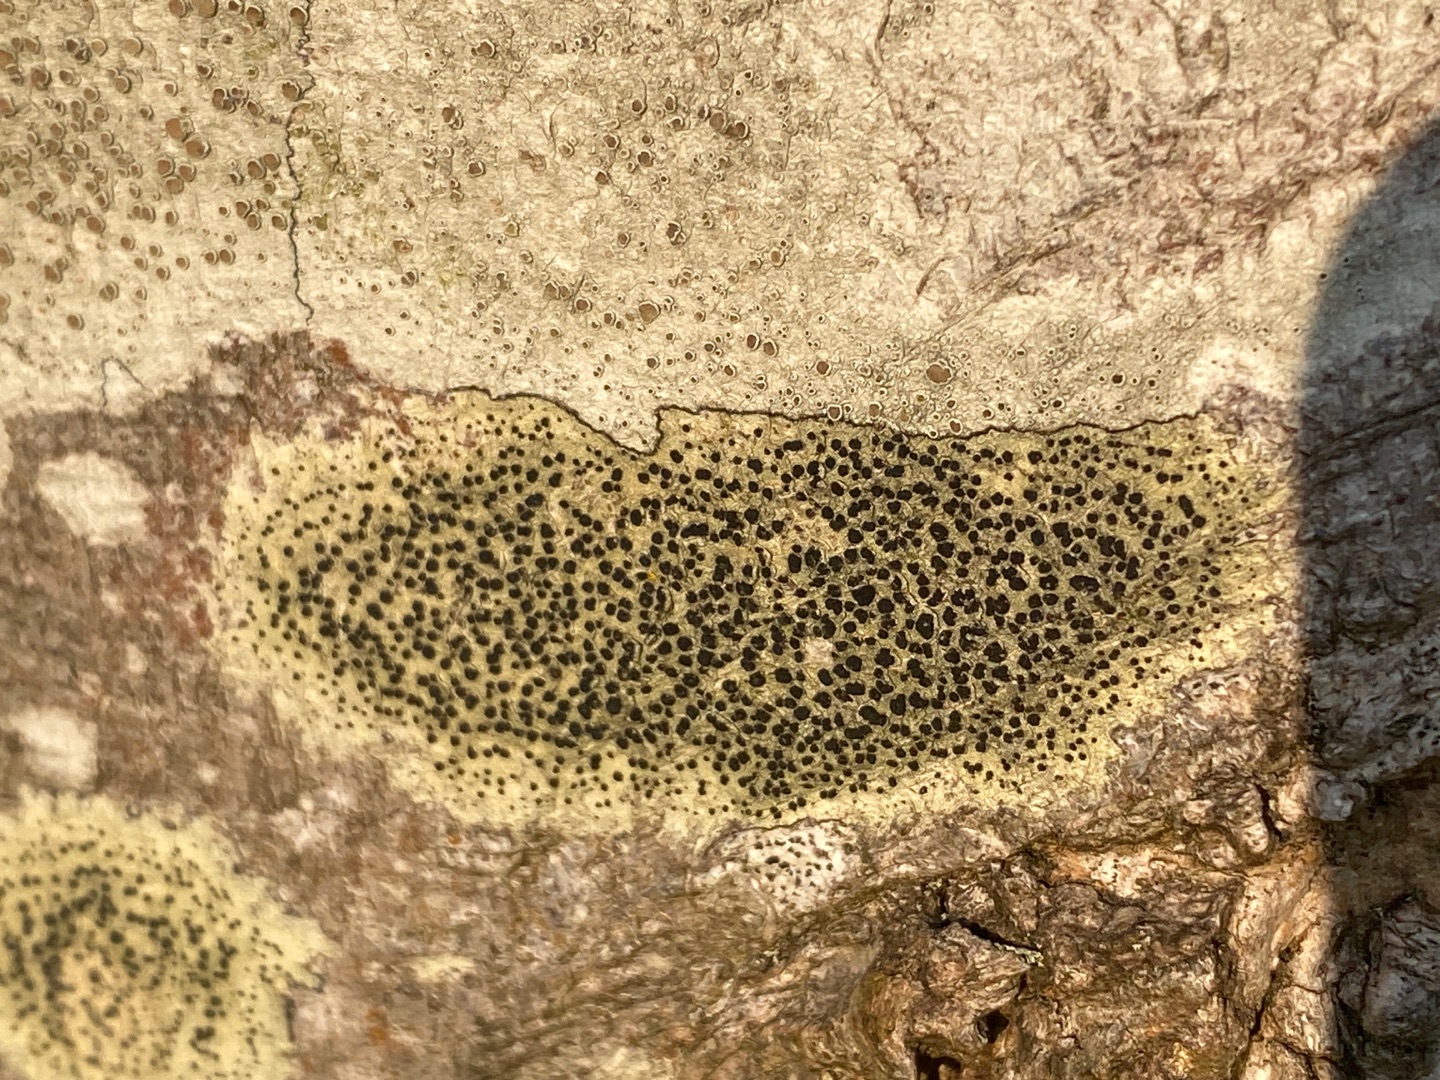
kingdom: Fungi
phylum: Ascomycota
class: Lecanoromycetes
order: Lecanorales
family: Lecanoraceae
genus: Lecidella
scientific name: Lecidella elaeochroma
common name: Grågrøn skivelav
